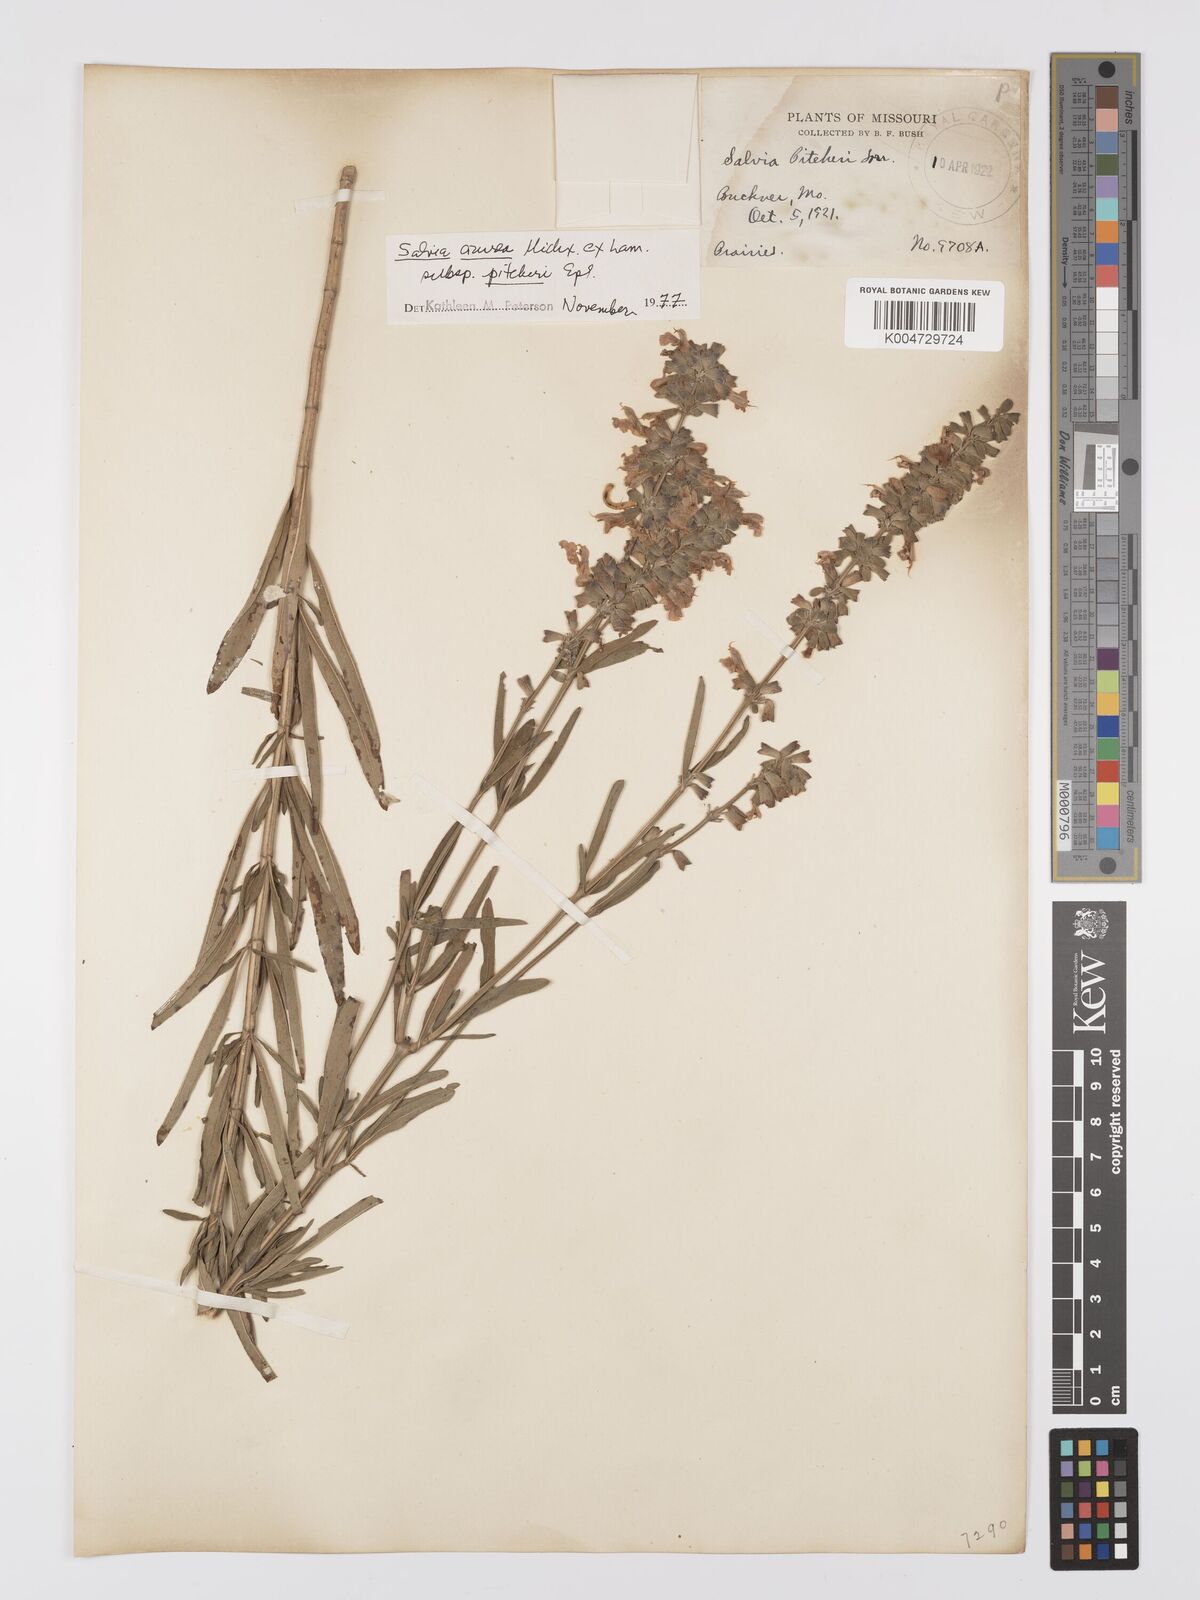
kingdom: Plantae
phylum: Tracheophyta
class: Magnoliopsida
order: Lamiales
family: Lamiaceae
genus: Salvia
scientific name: Salvia azurea
